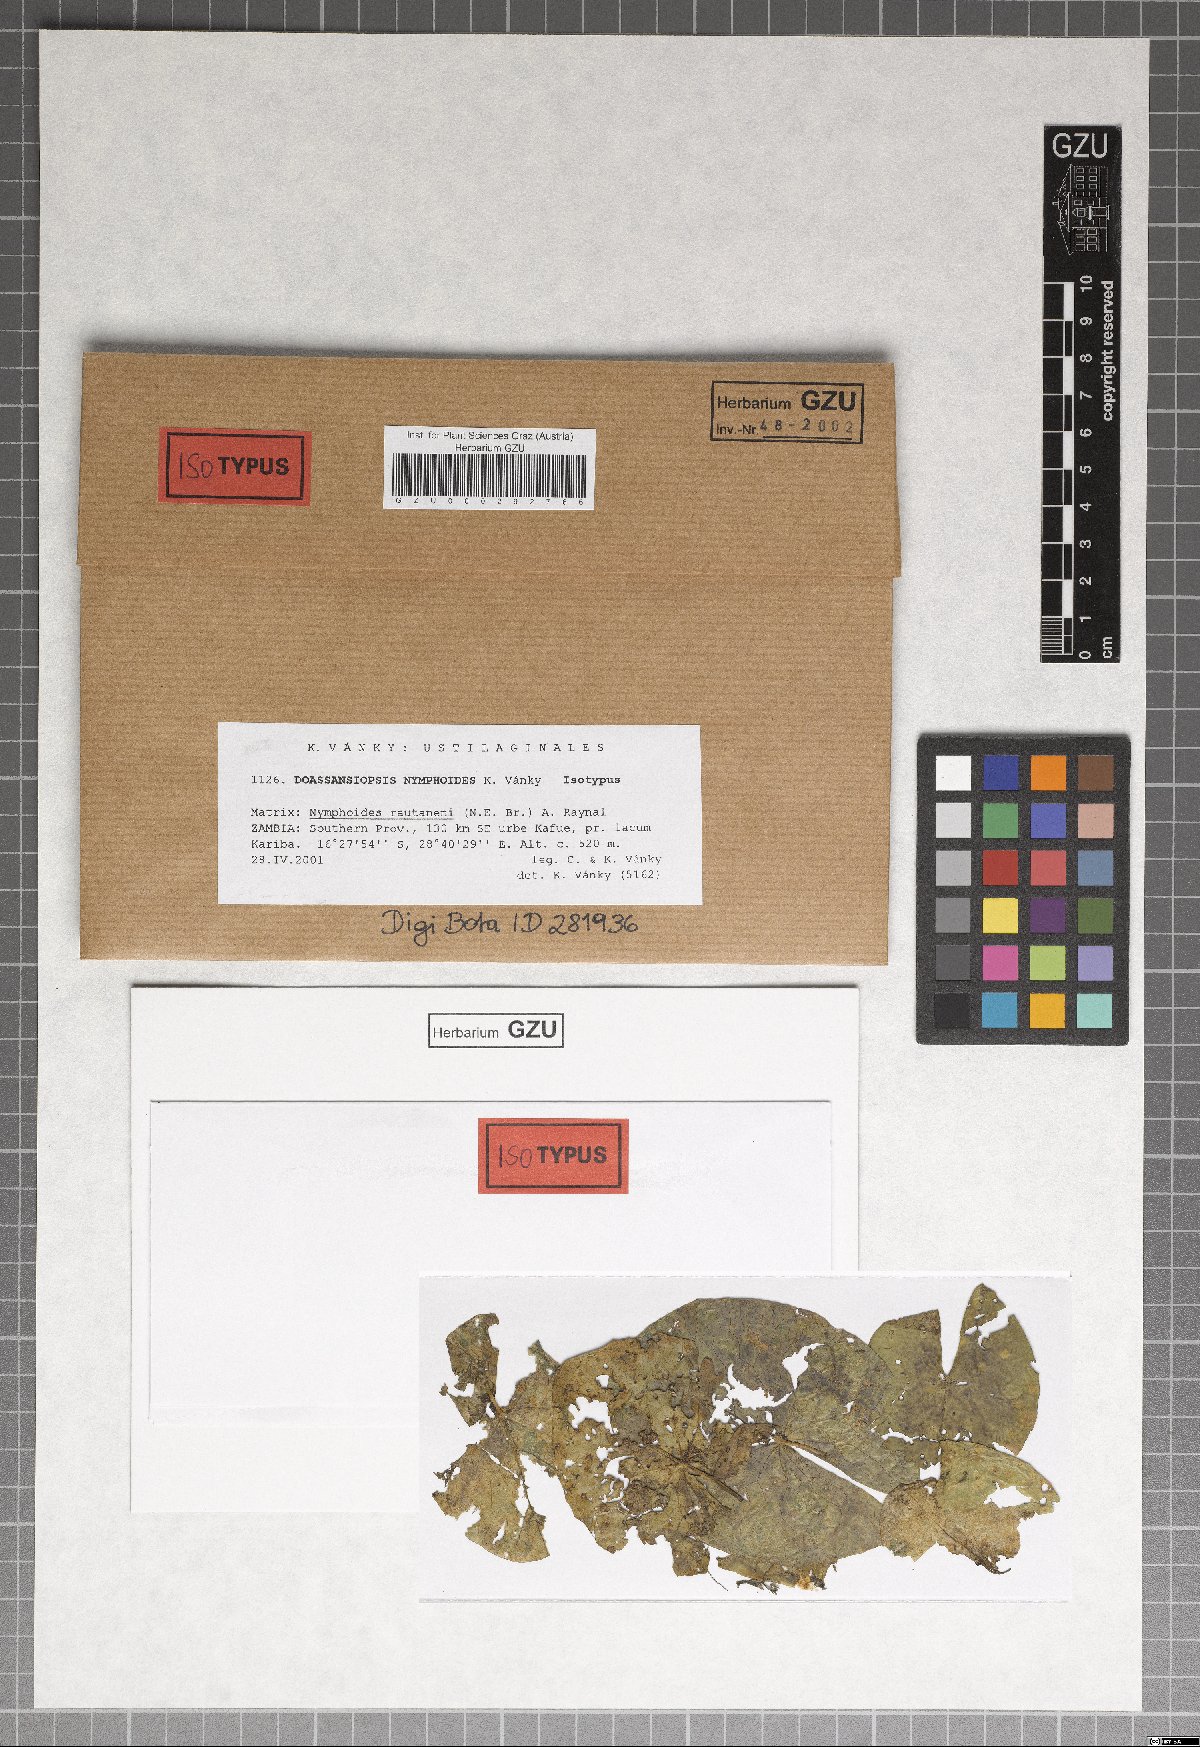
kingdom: Fungi
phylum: Basidiomycota
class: Ustilaginomycetes
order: Urocystidales
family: Doassansiopsidaceae
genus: Doassansiopsis
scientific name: Doassansiopsis nymphoides
